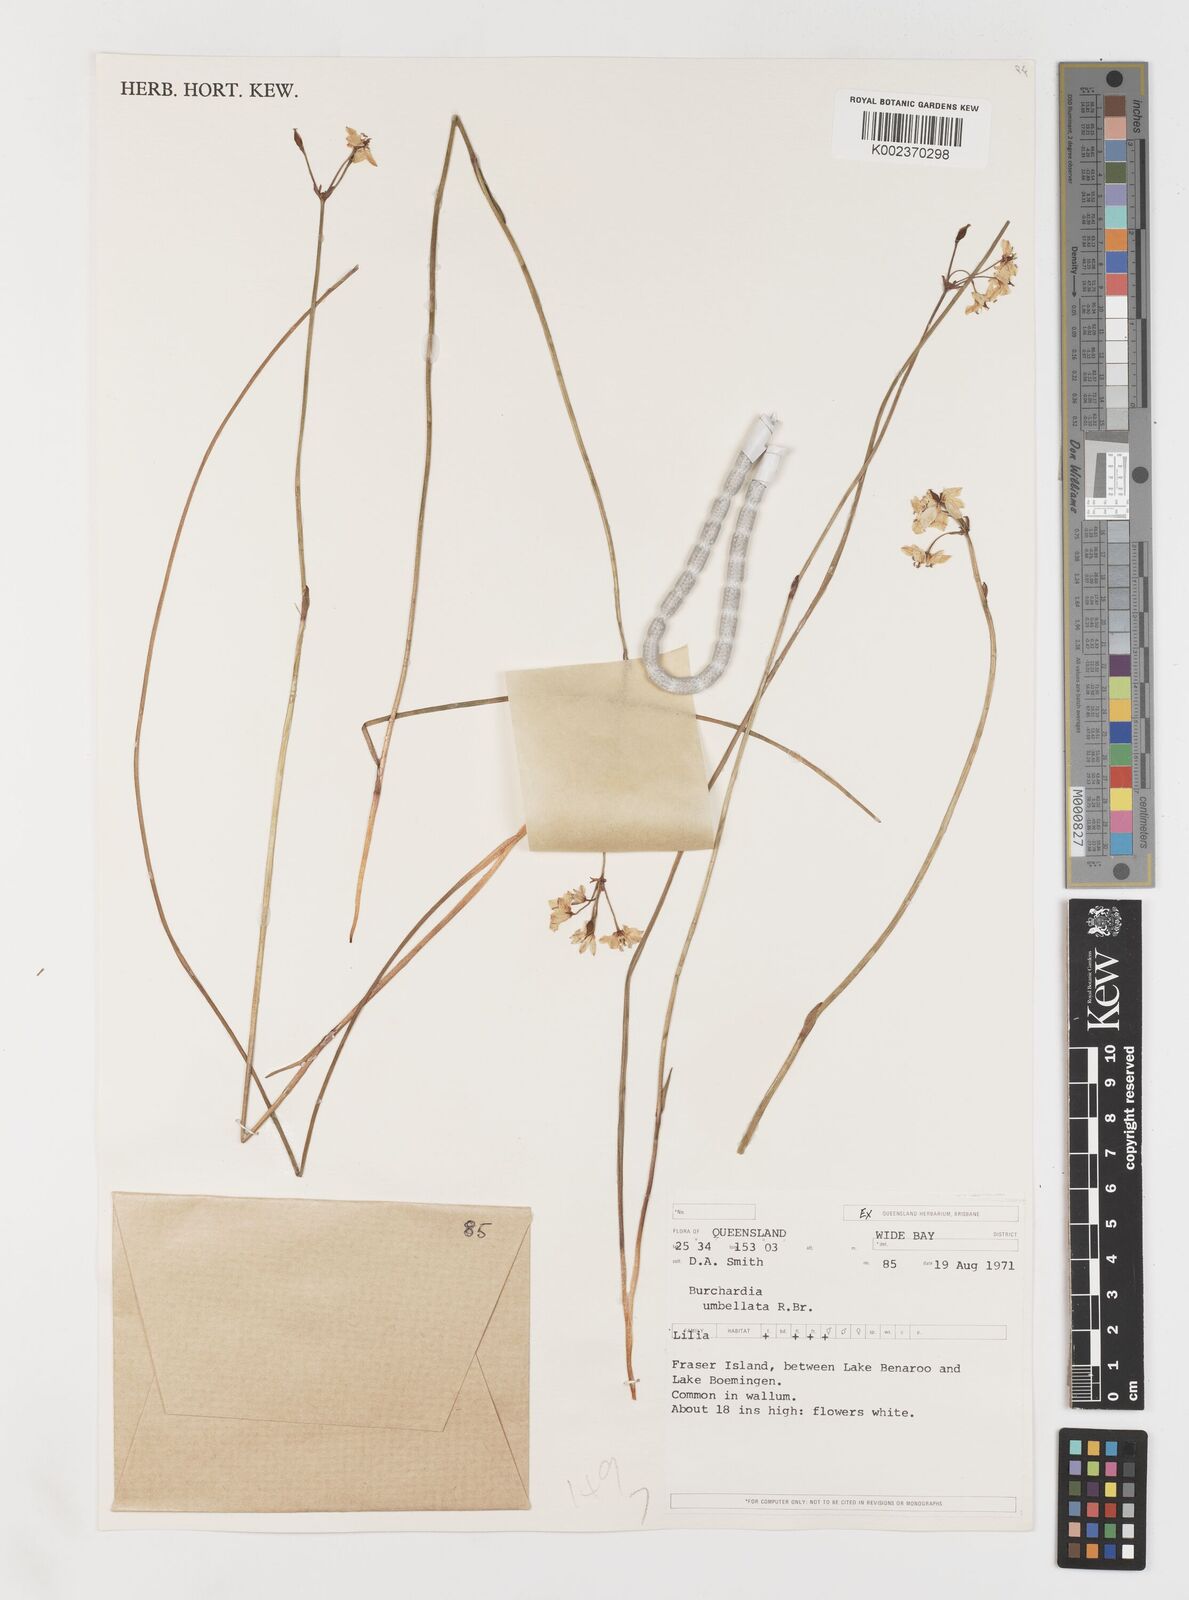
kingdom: Plantae
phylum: Tracheophyta
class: Liliopsida
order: Liliales
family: Colchicaceae
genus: Burchardia
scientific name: Burchardia umbellata
